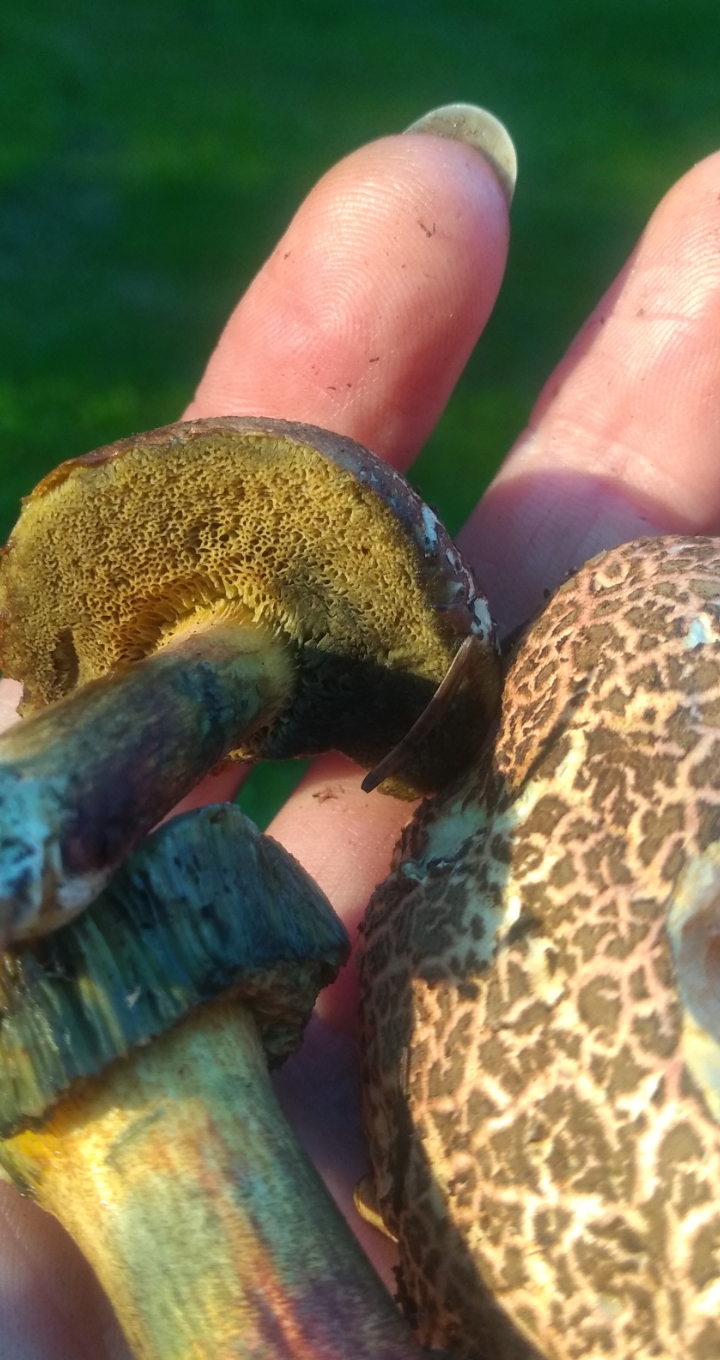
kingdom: Fungi
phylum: Basidiomycota
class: Agaricomycetes
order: Boletales
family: Boletaceae
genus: Xerocomellus
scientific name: Xerocomellus cisalpinus
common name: finsprukken rørhat
